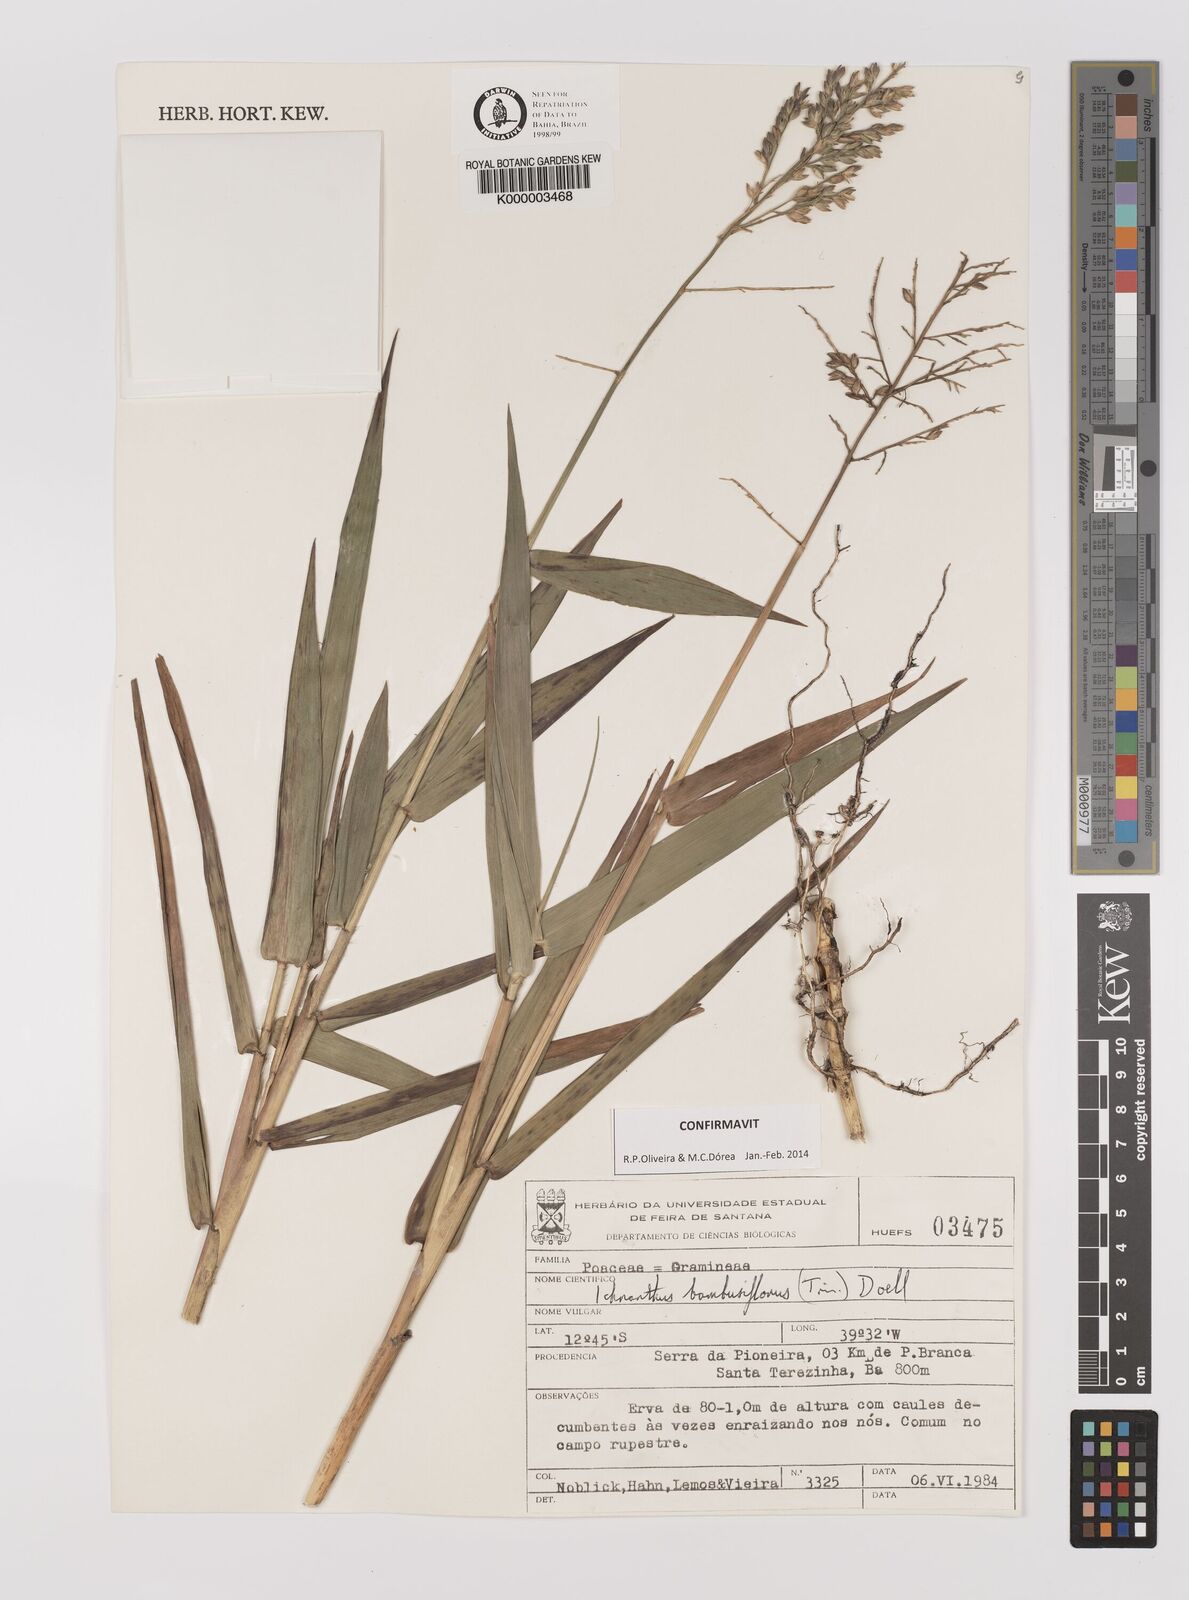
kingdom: Plantae
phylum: Tracheophyta
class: Liliopsida
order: Poales
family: Poaceae
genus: Ichnanthus
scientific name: Ichnanthus
